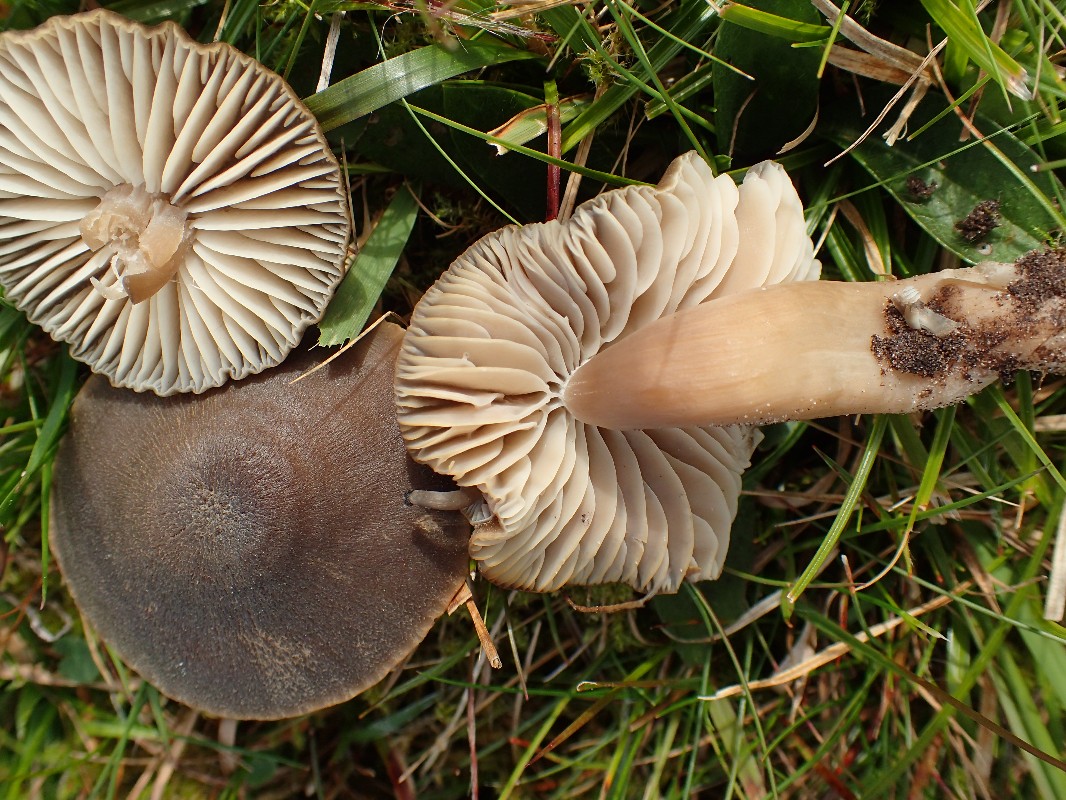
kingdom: Fungi
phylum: Basidiomycota
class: Agaricomycetes
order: Agaricales
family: Hygrophoraceae
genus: Neohygrocybe
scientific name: Neohygrocybe nitrata
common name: stinkende vokshat
